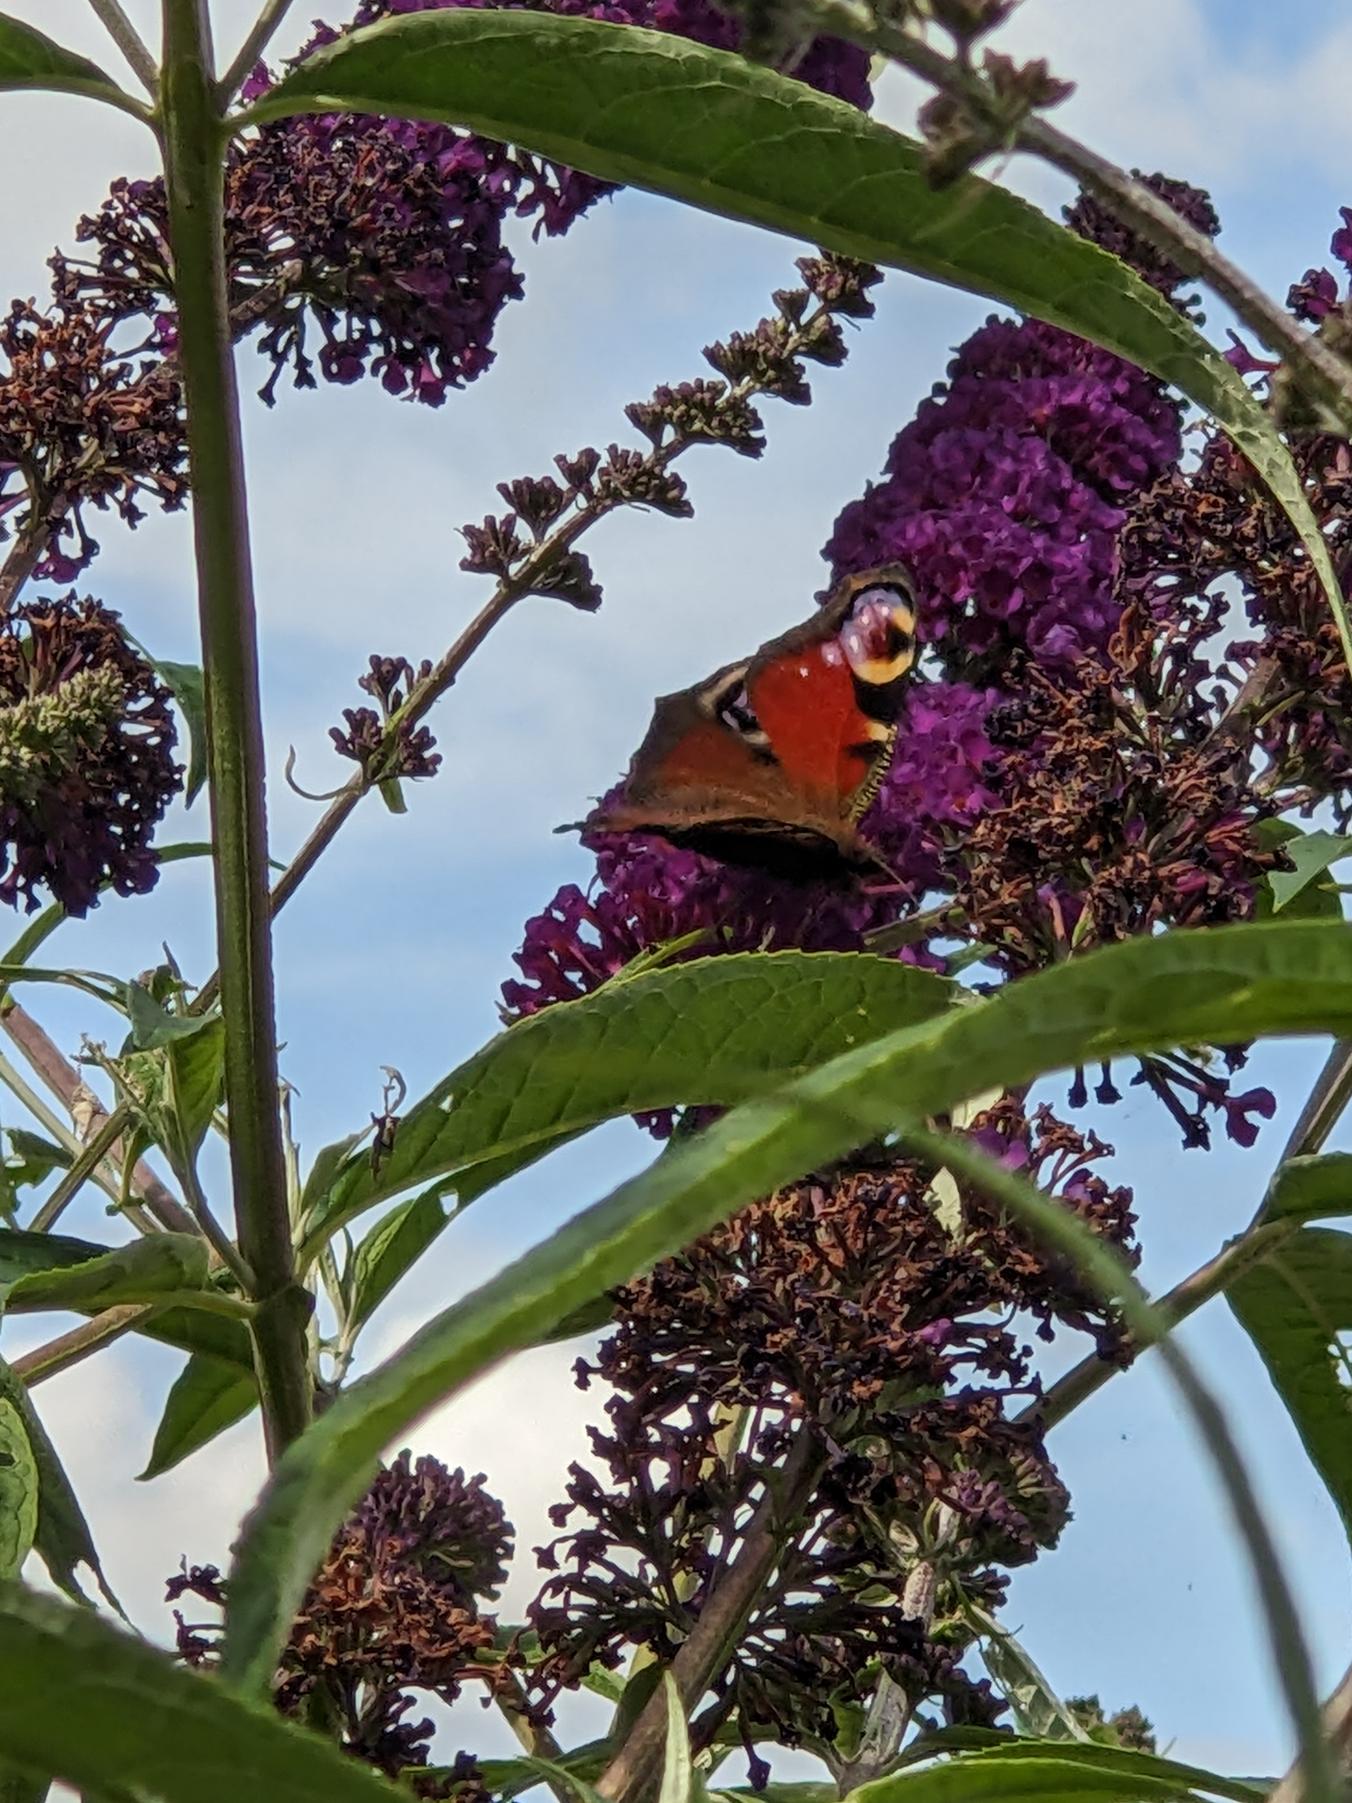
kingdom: Animalia
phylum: Arthropoda
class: Insecta
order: Lepidoptera
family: Nymphalidae
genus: Aglais
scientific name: Aglais io
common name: Dagpåfugleøje
